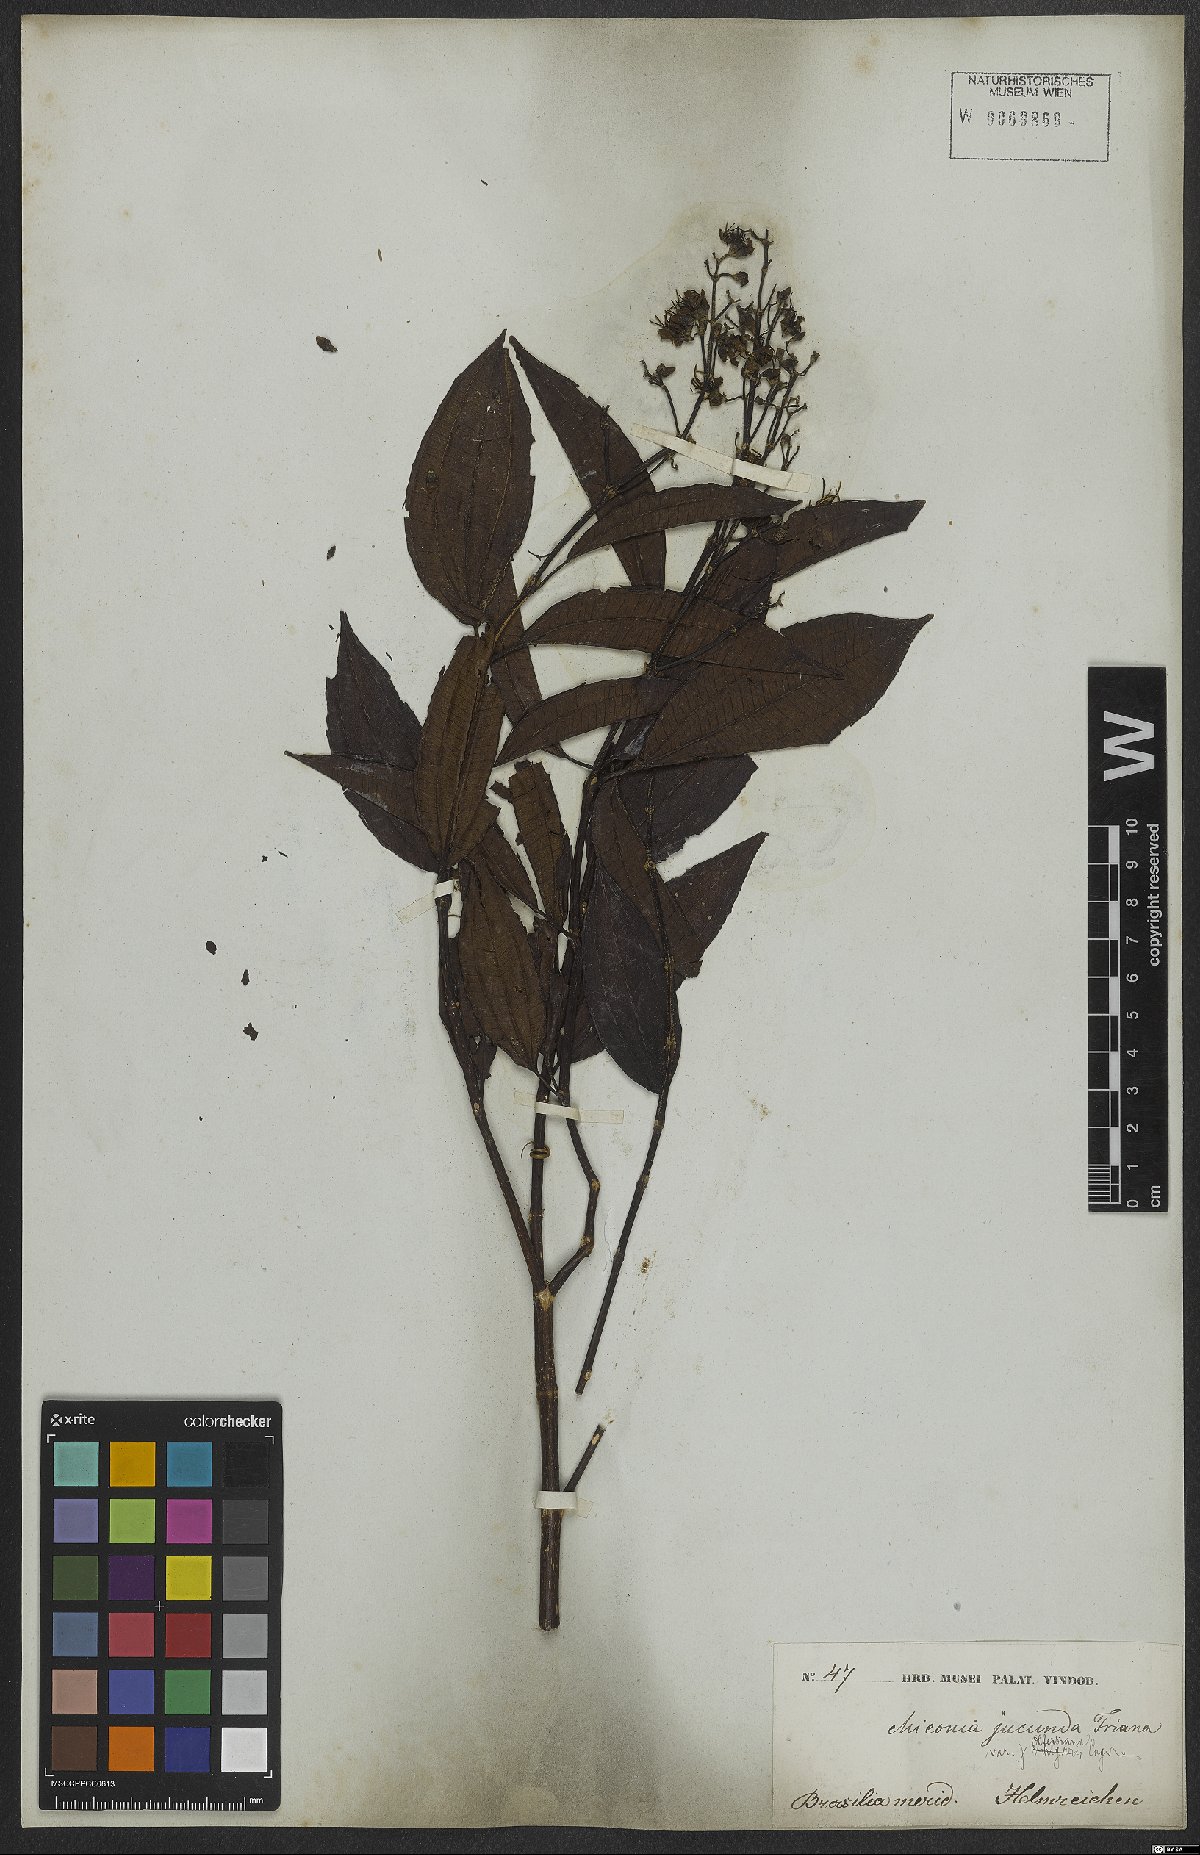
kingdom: Plantae
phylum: Tracheophyta
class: Magnoliopsida
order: Myrtales
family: Melastomataceae
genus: Miconia
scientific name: Miconia jucunda
